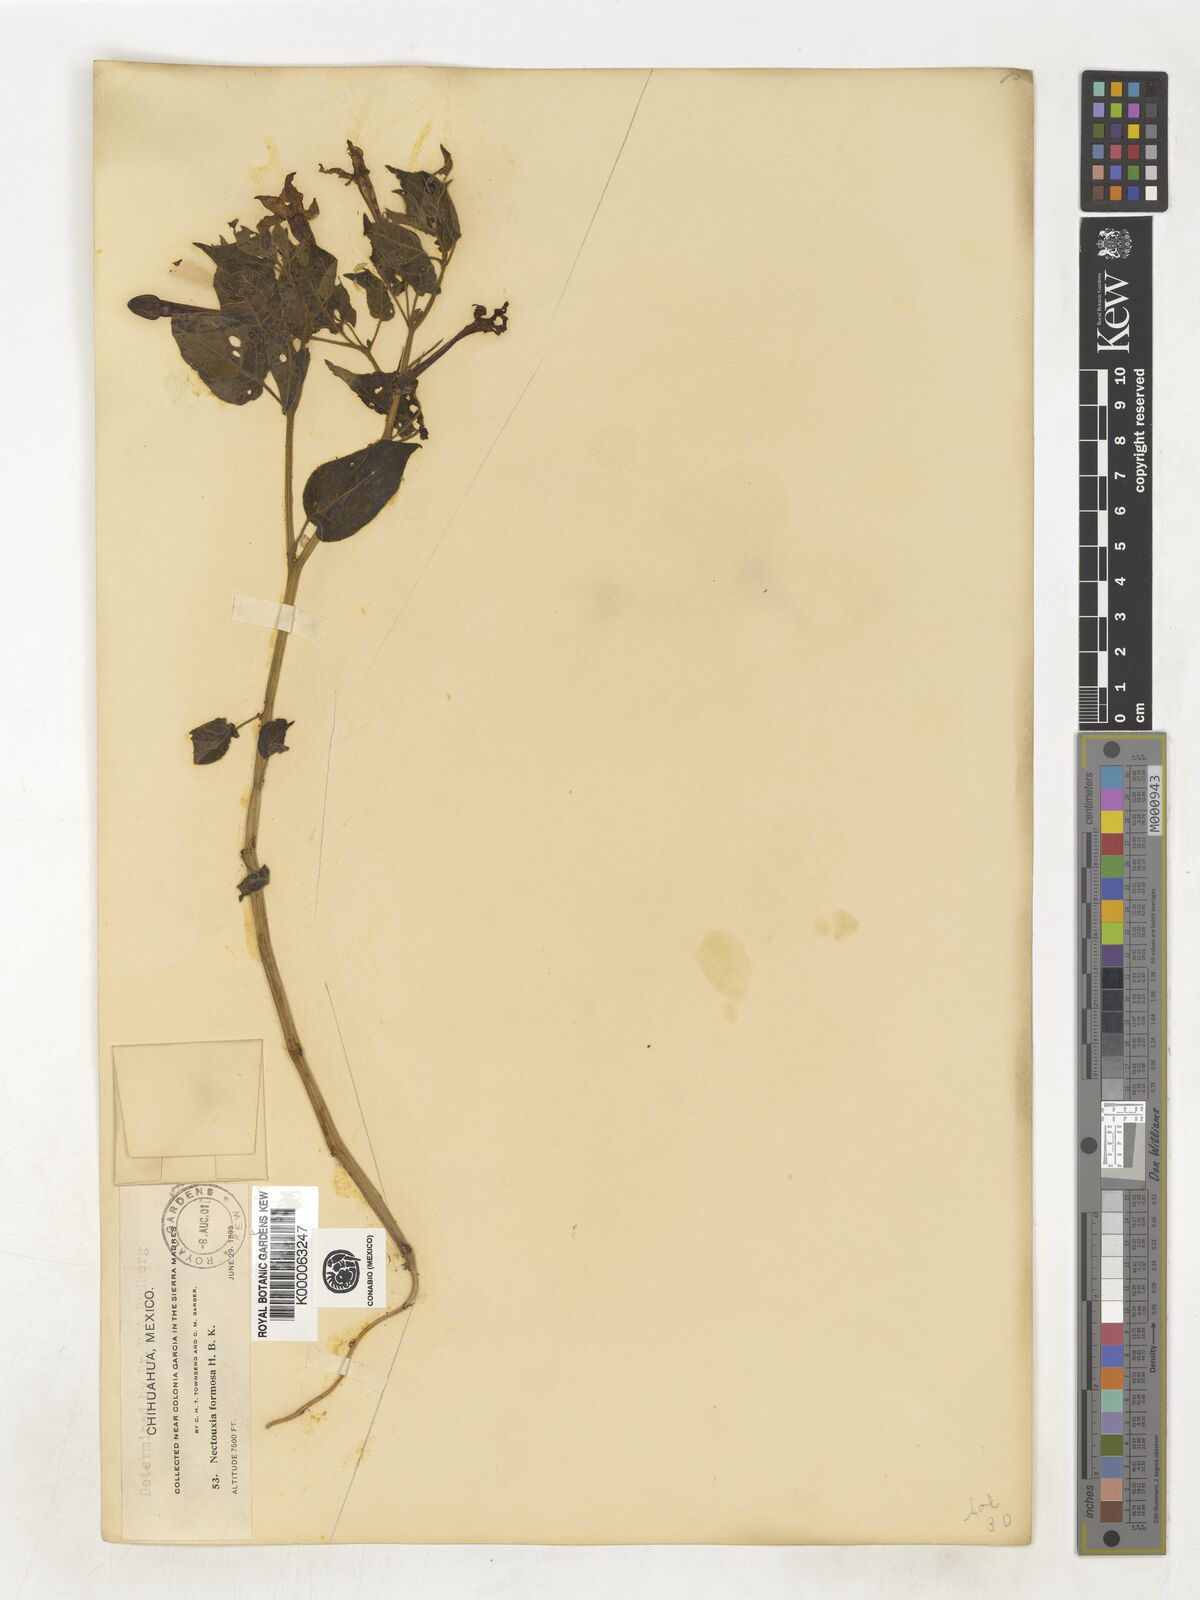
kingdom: Plantae
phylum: Tracheophyta
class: Magnoliopsida
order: Solanales
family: Solanaceae
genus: Nectouxia
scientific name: Nectouxia formosa
